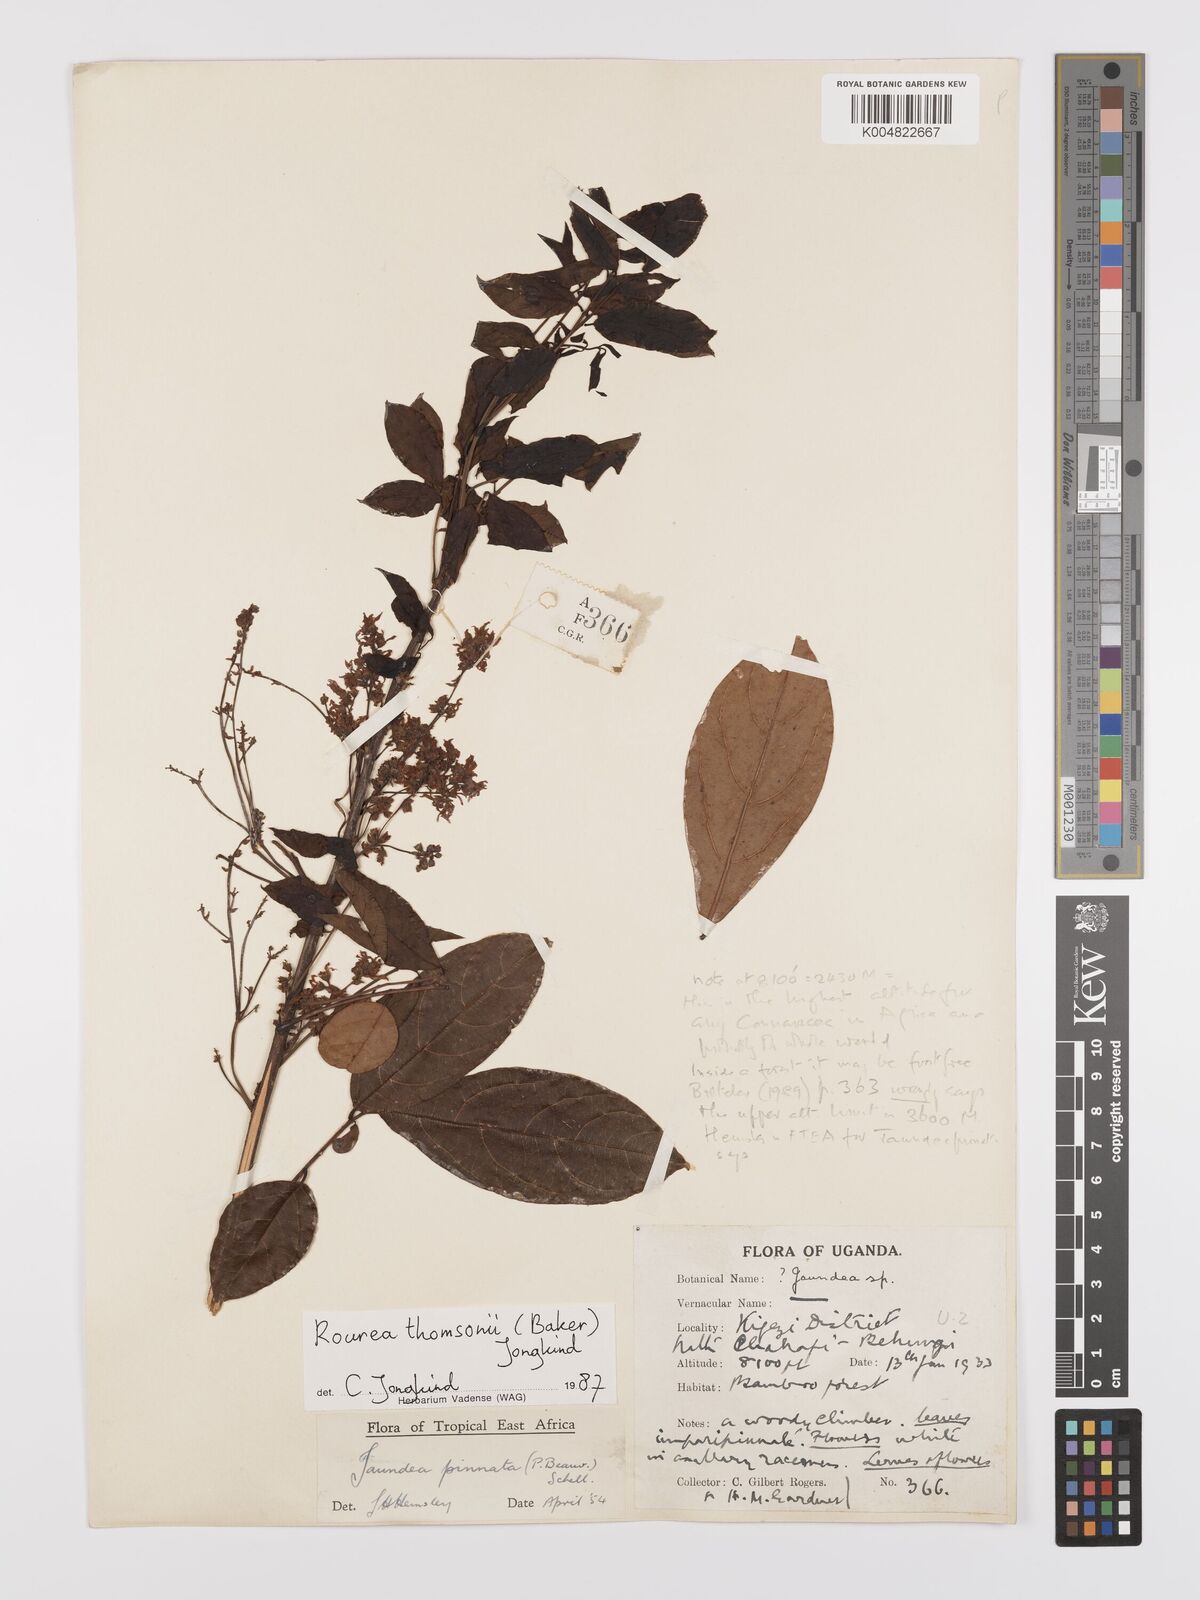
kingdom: Plantae
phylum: Tracheophyta
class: Magnoliopsida
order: Oxalidales
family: Connaraceae
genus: Rourea
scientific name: Rourea pinnata
